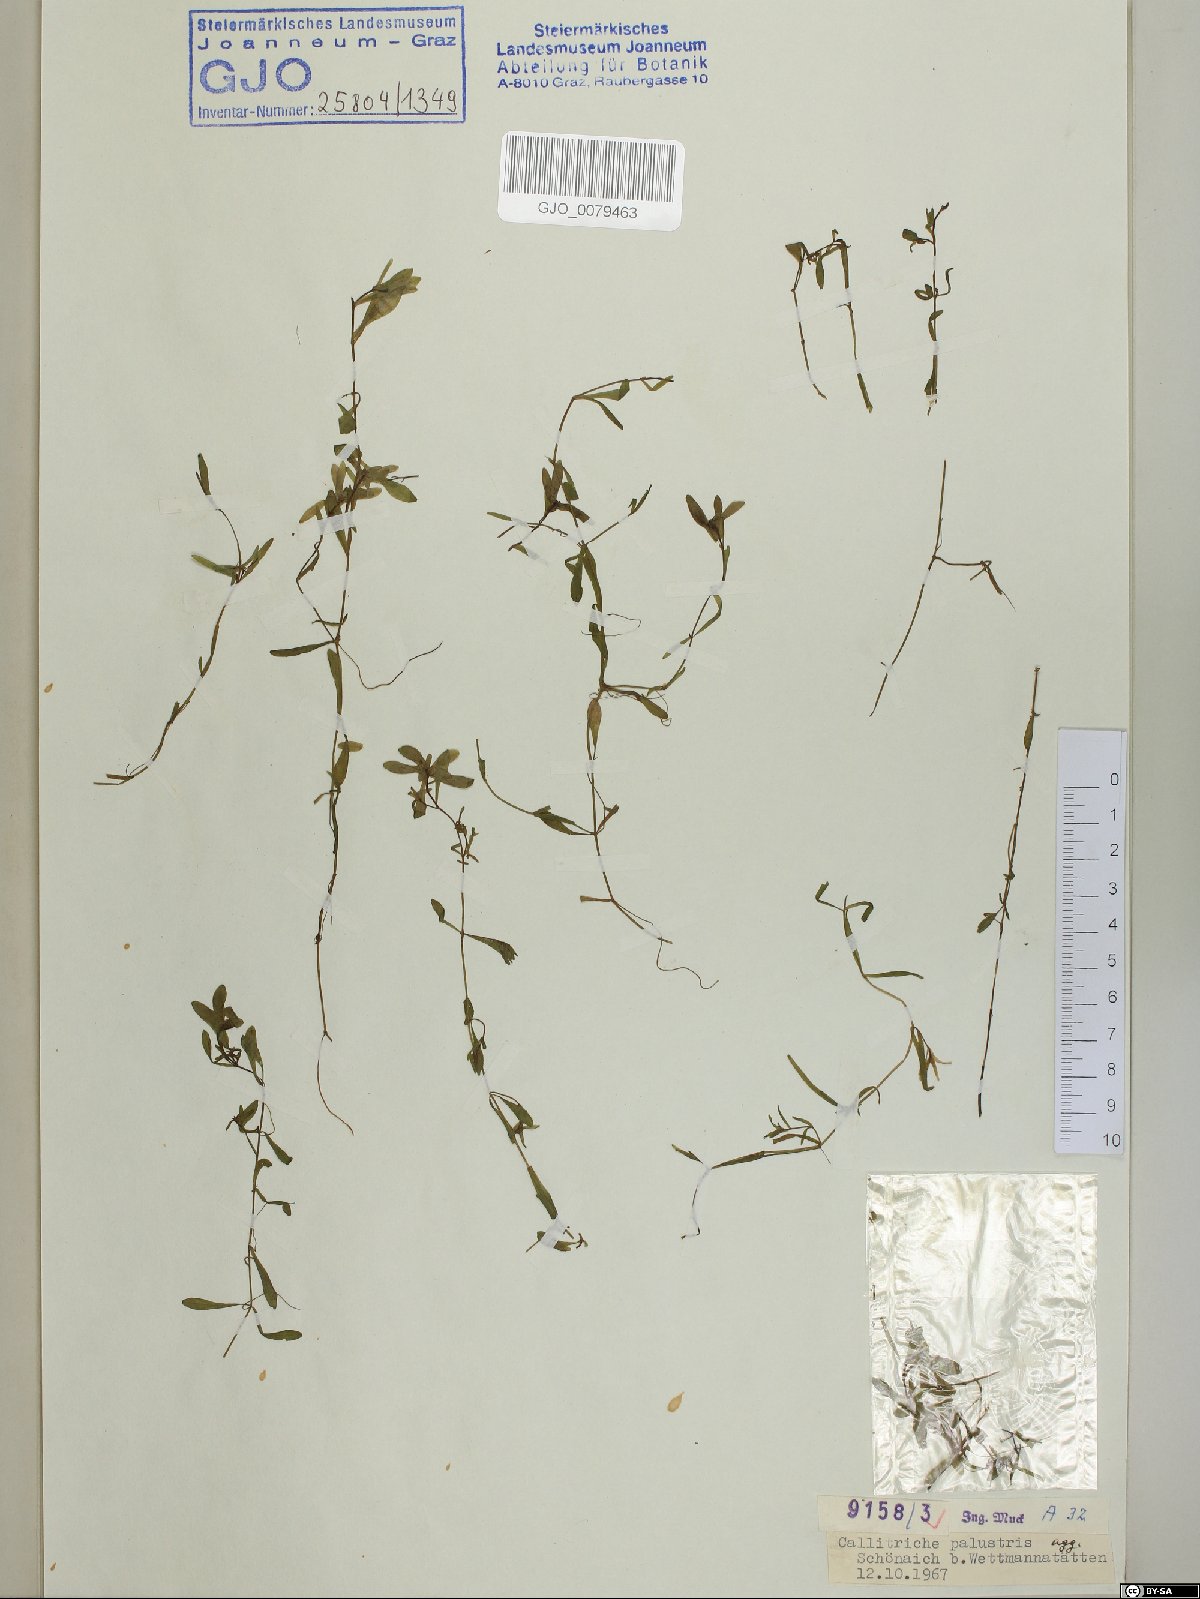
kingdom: Fungi
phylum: Basidiomycota
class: Agaricomycetes
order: Polyporales
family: Polyporaceae
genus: Coriolopsis
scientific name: Coriolopsis gallica
